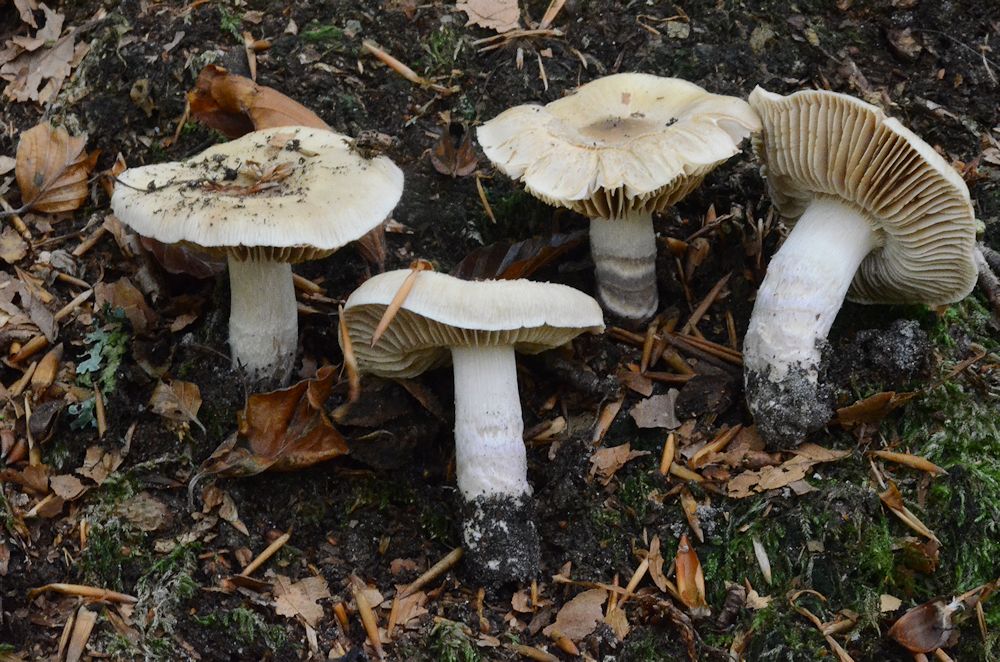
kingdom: Fungi
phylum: Basidiomycota
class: Agaricomycetes
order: Agaricales
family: Cortinariaceae
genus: Cortinarius
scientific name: Cortinarius livido-ochraceus
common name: halvhøj slørhat
